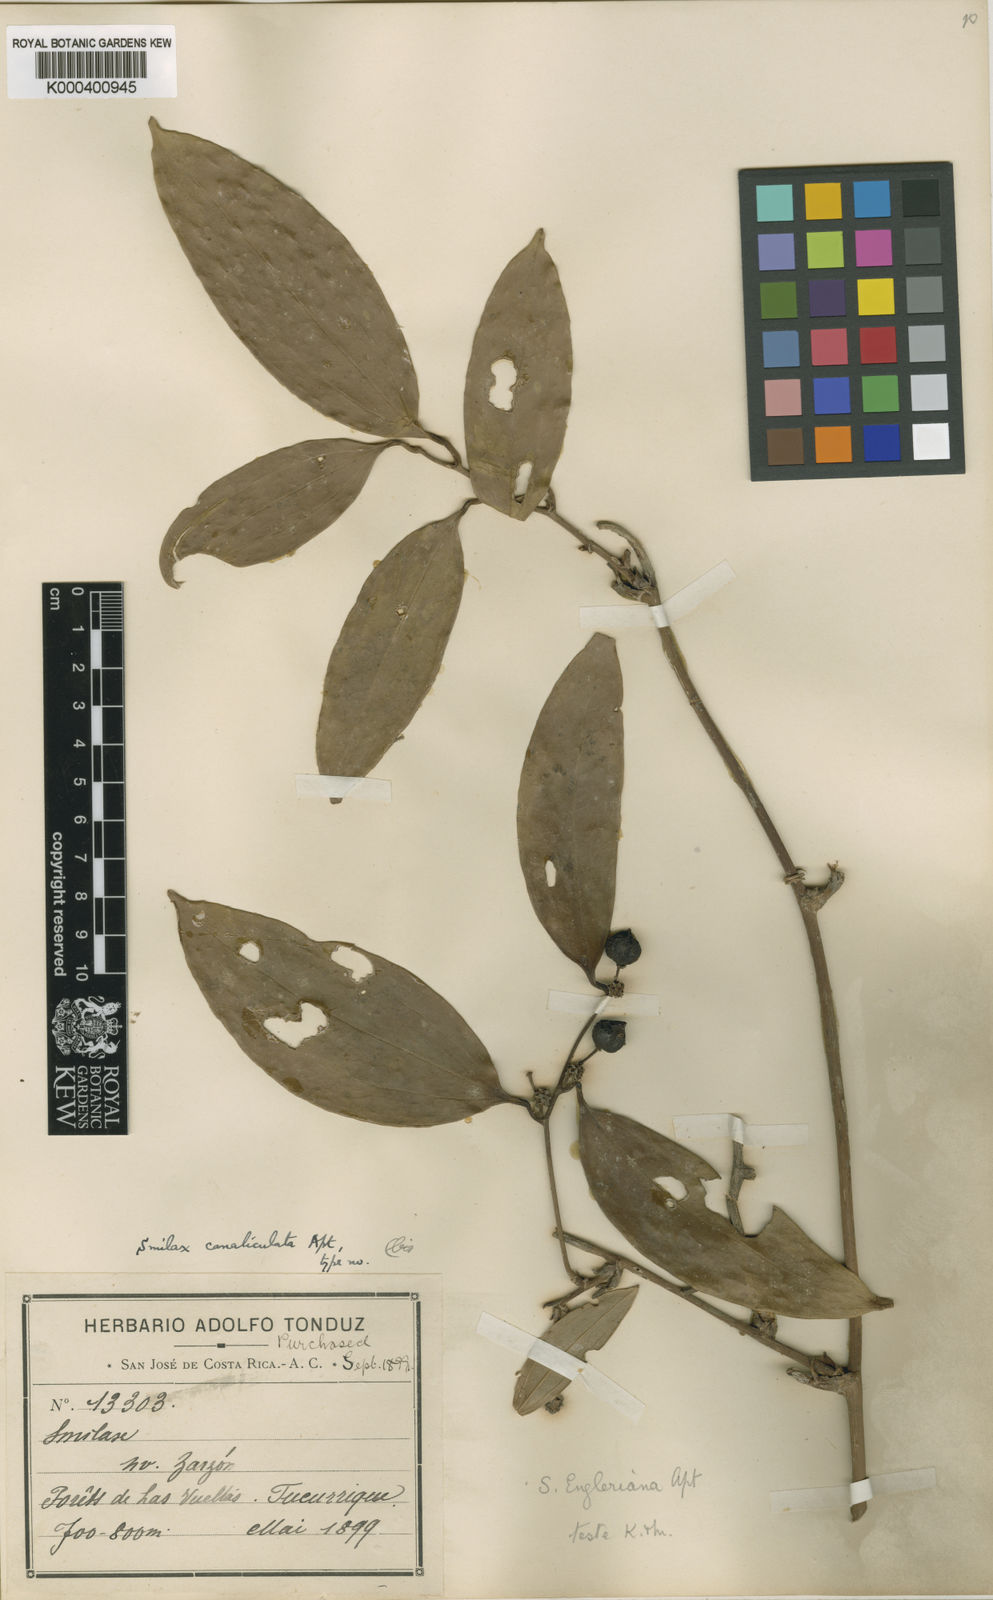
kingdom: Plantae
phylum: Tracheophyta
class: Liliopsida
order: Liliales
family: Smilacaceae
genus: Smilax
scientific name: Smilax domingensis
